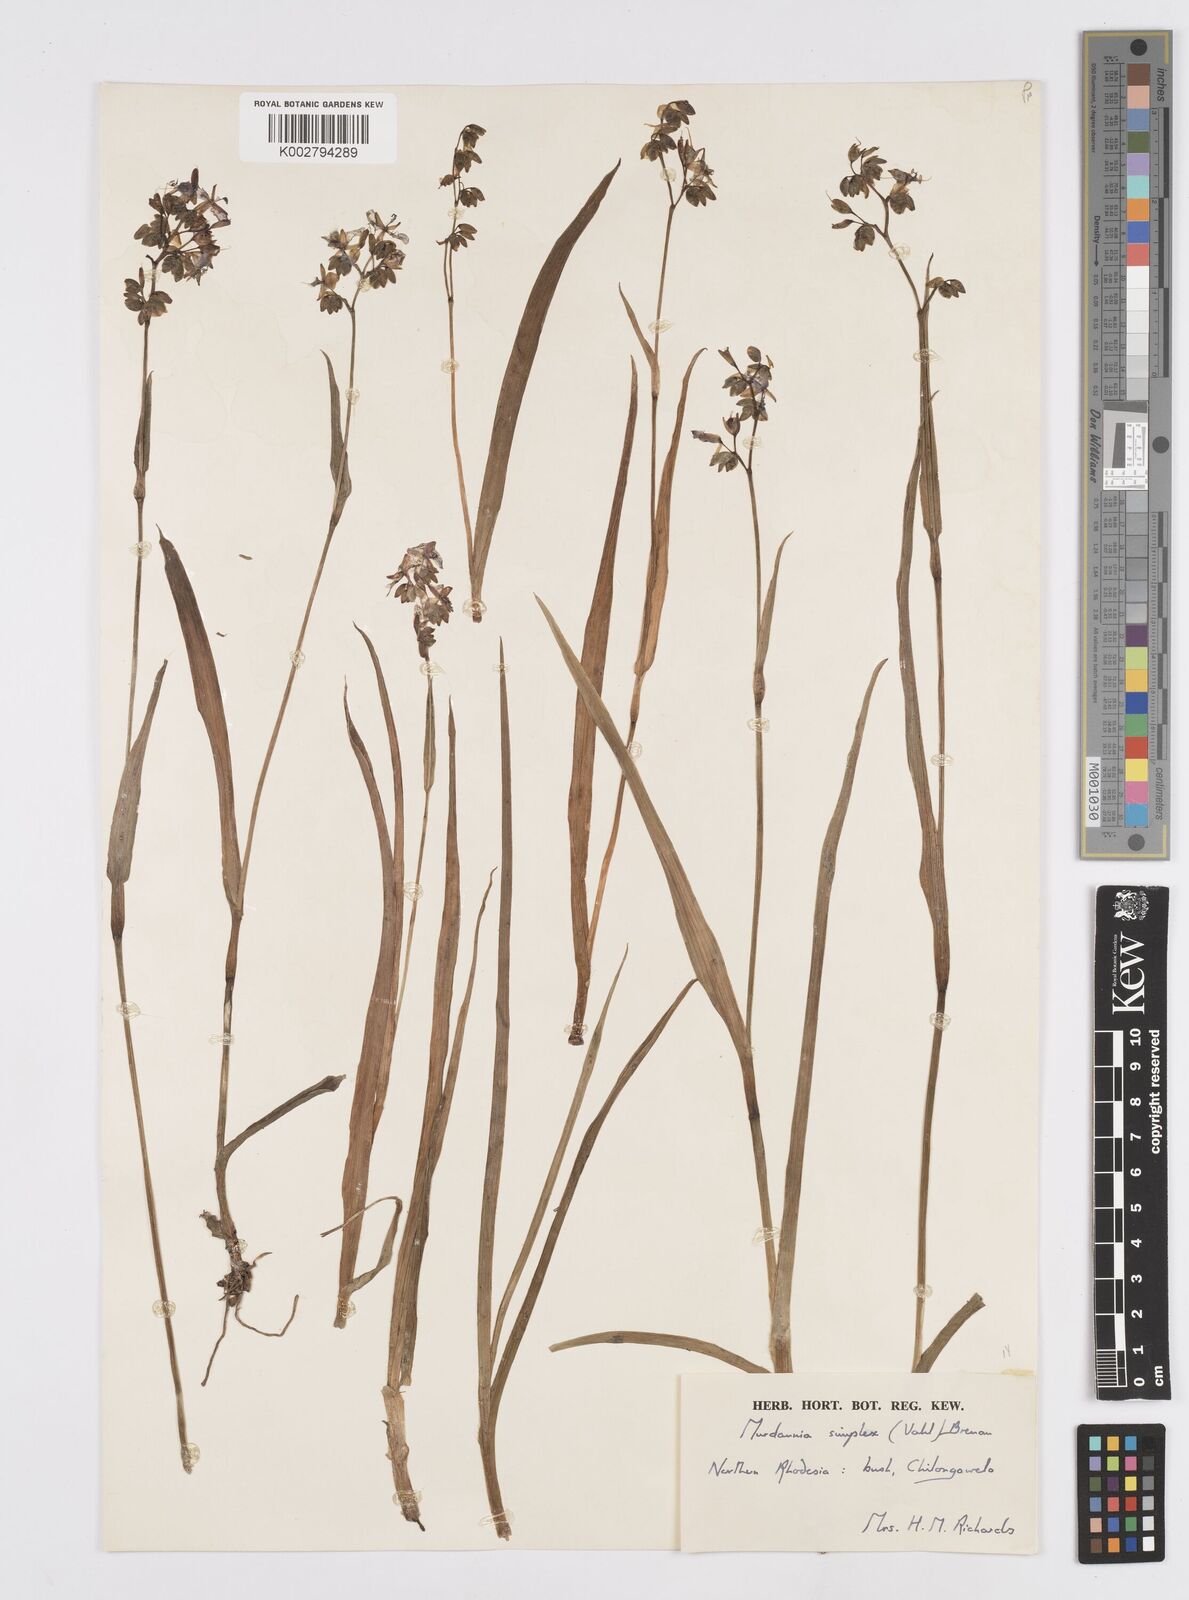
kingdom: Plantae
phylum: Tracheophyta
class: Liliopsida
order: Commelinales
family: Commelinaceae
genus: Murdannia
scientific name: Murdannia simplex
